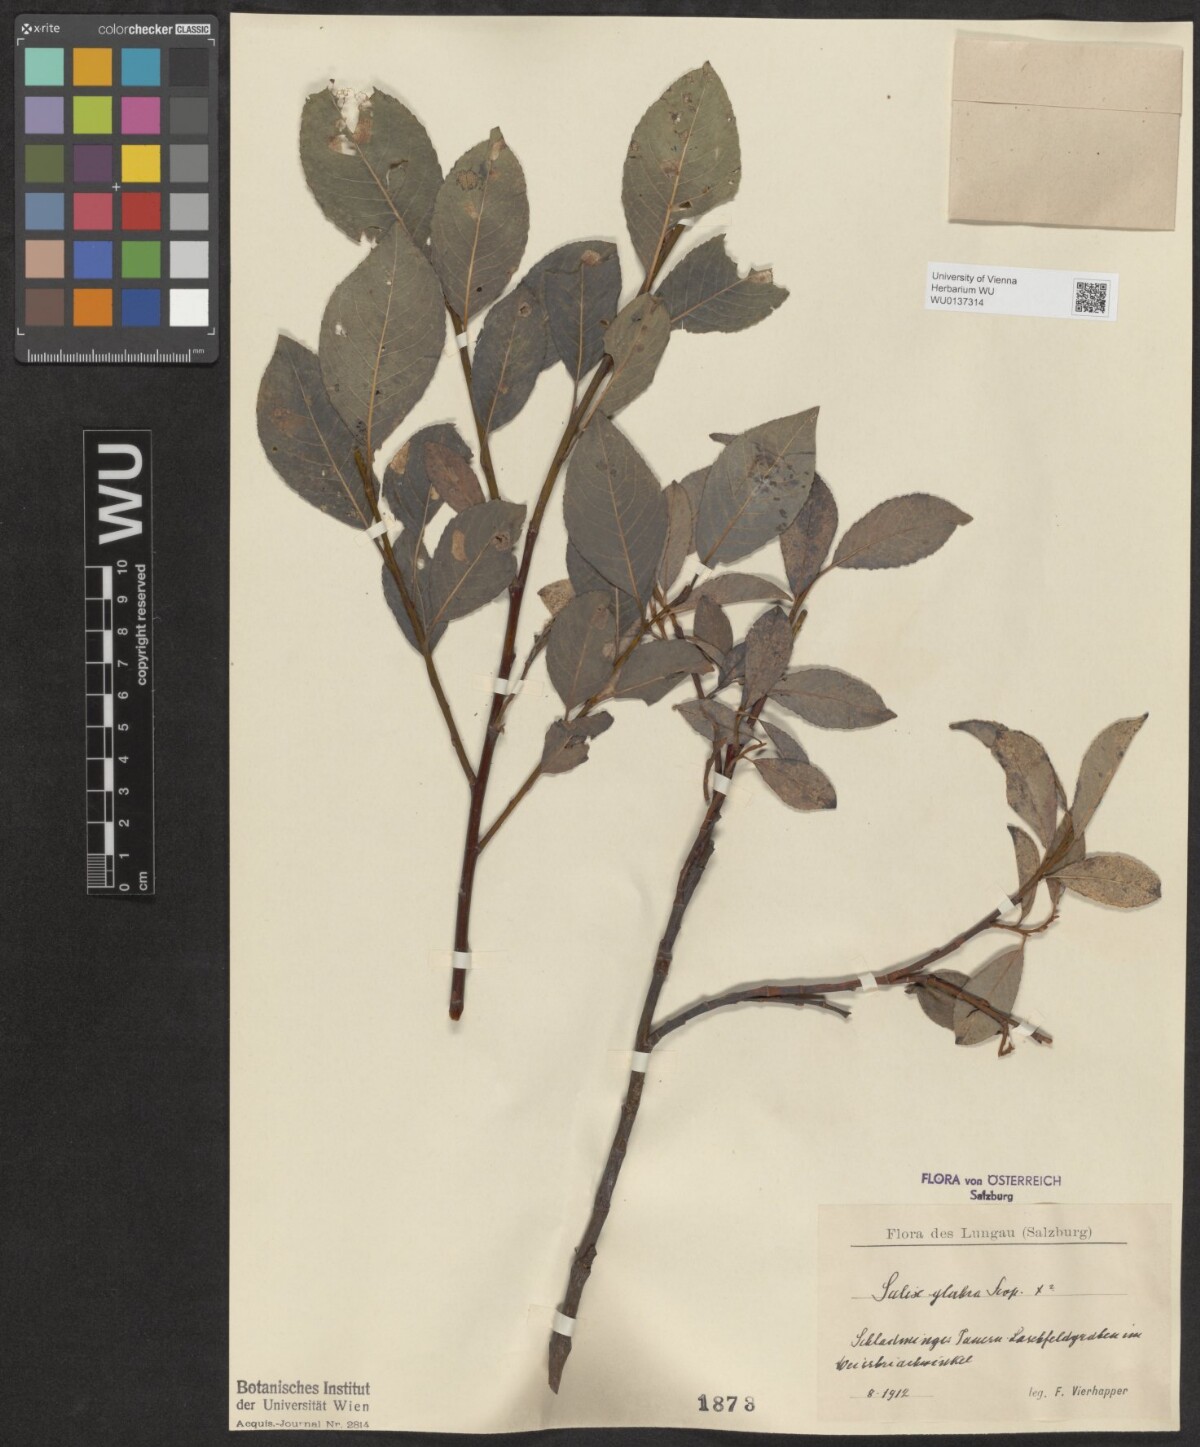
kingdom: Plantae
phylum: Tracheophyta
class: Magnoliopsida
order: Malpighiales
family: Salicaceae
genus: Salix
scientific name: Salix glabra
